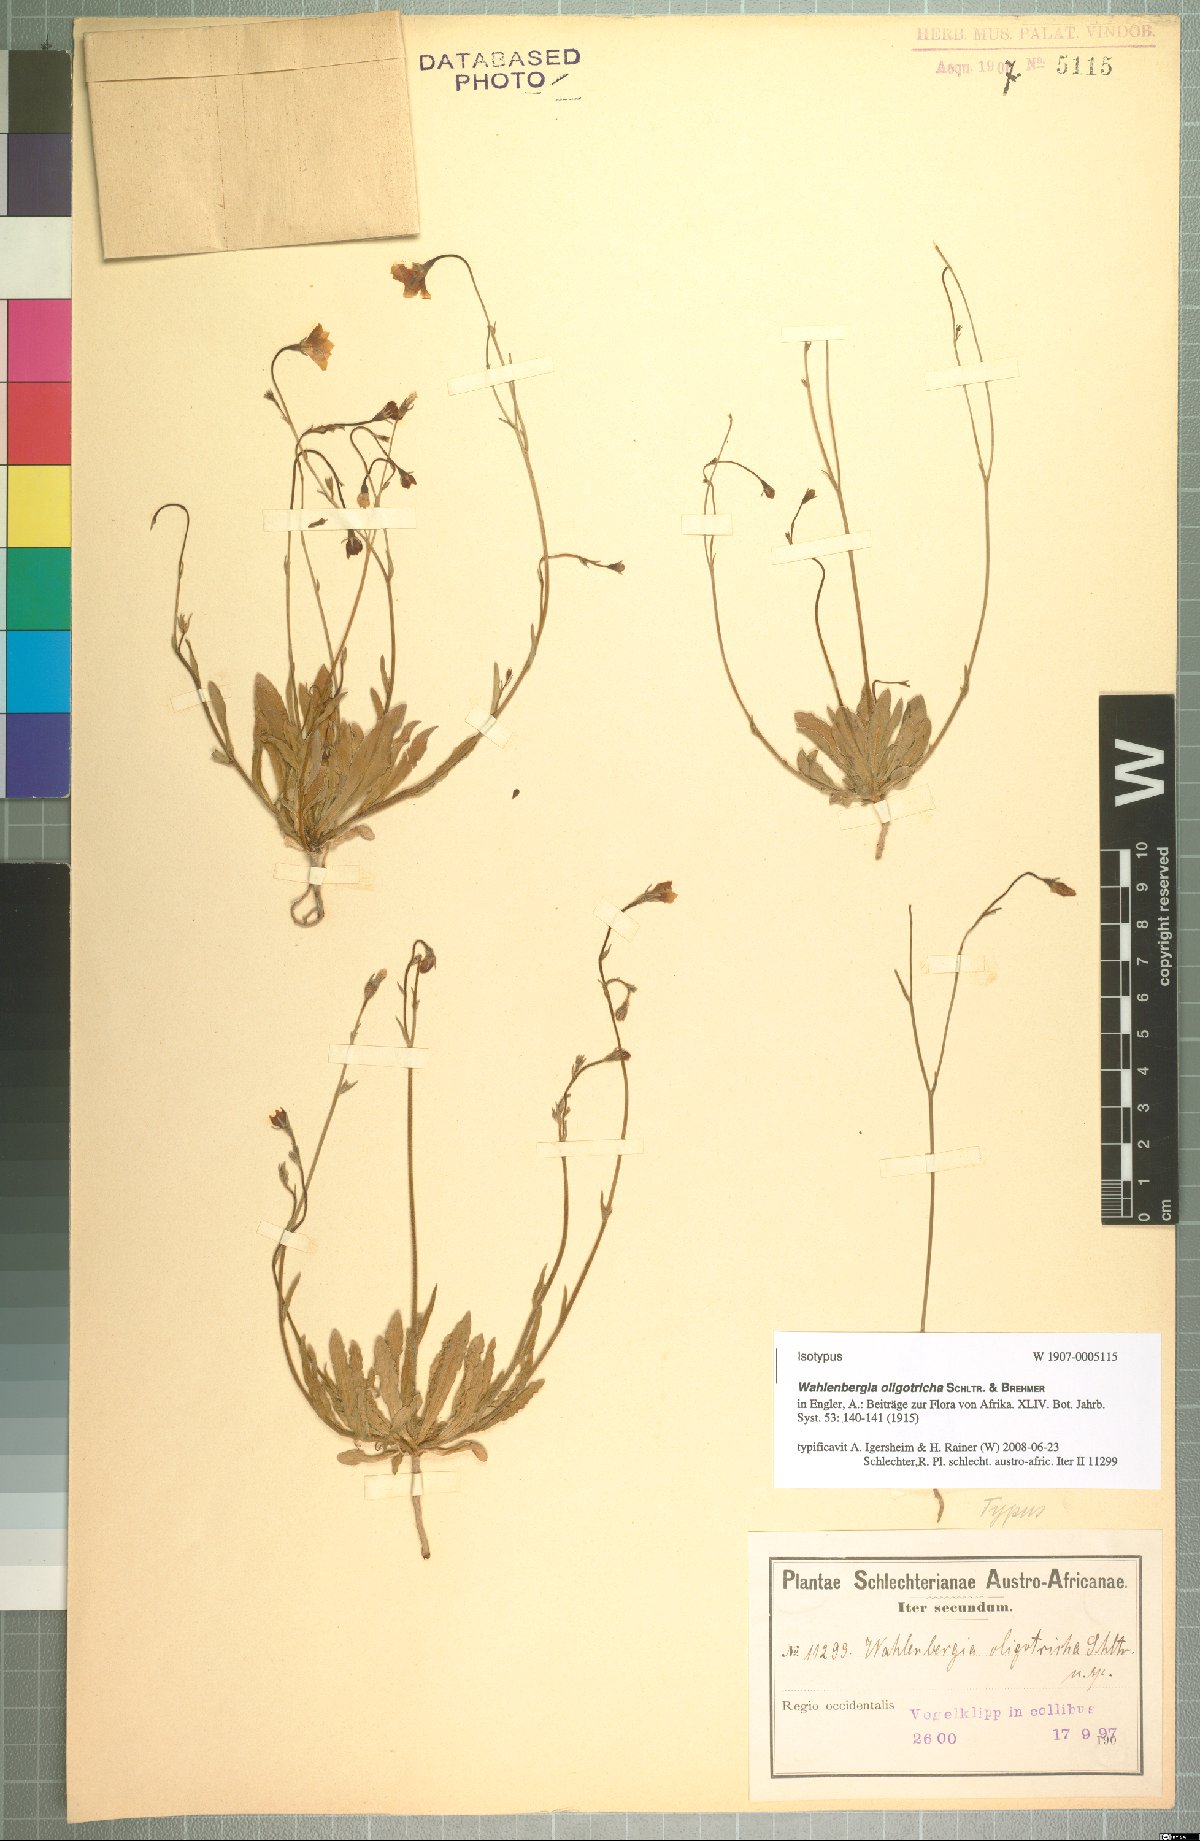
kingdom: Plantae
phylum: Tracheophyta
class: Magnoliopsida
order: Asterales
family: Campanulaceae
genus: Wahlenbergia
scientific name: Wahlenbergia oligotricha
